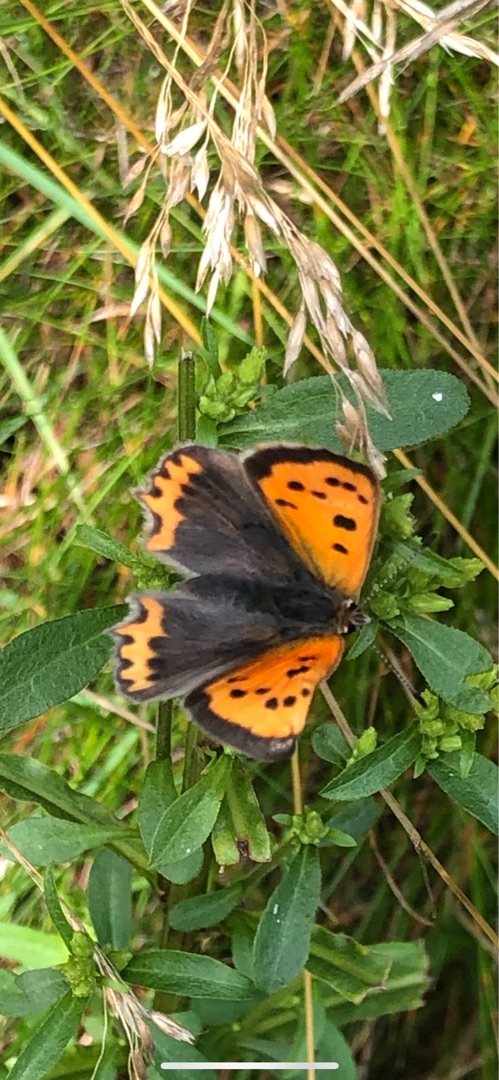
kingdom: Animalia
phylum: Arthropoda
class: Insecta
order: Lepidoptera
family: Lycaenidae
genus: Lycaena
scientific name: Lycaena phlaeas
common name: Lille ildfugl
